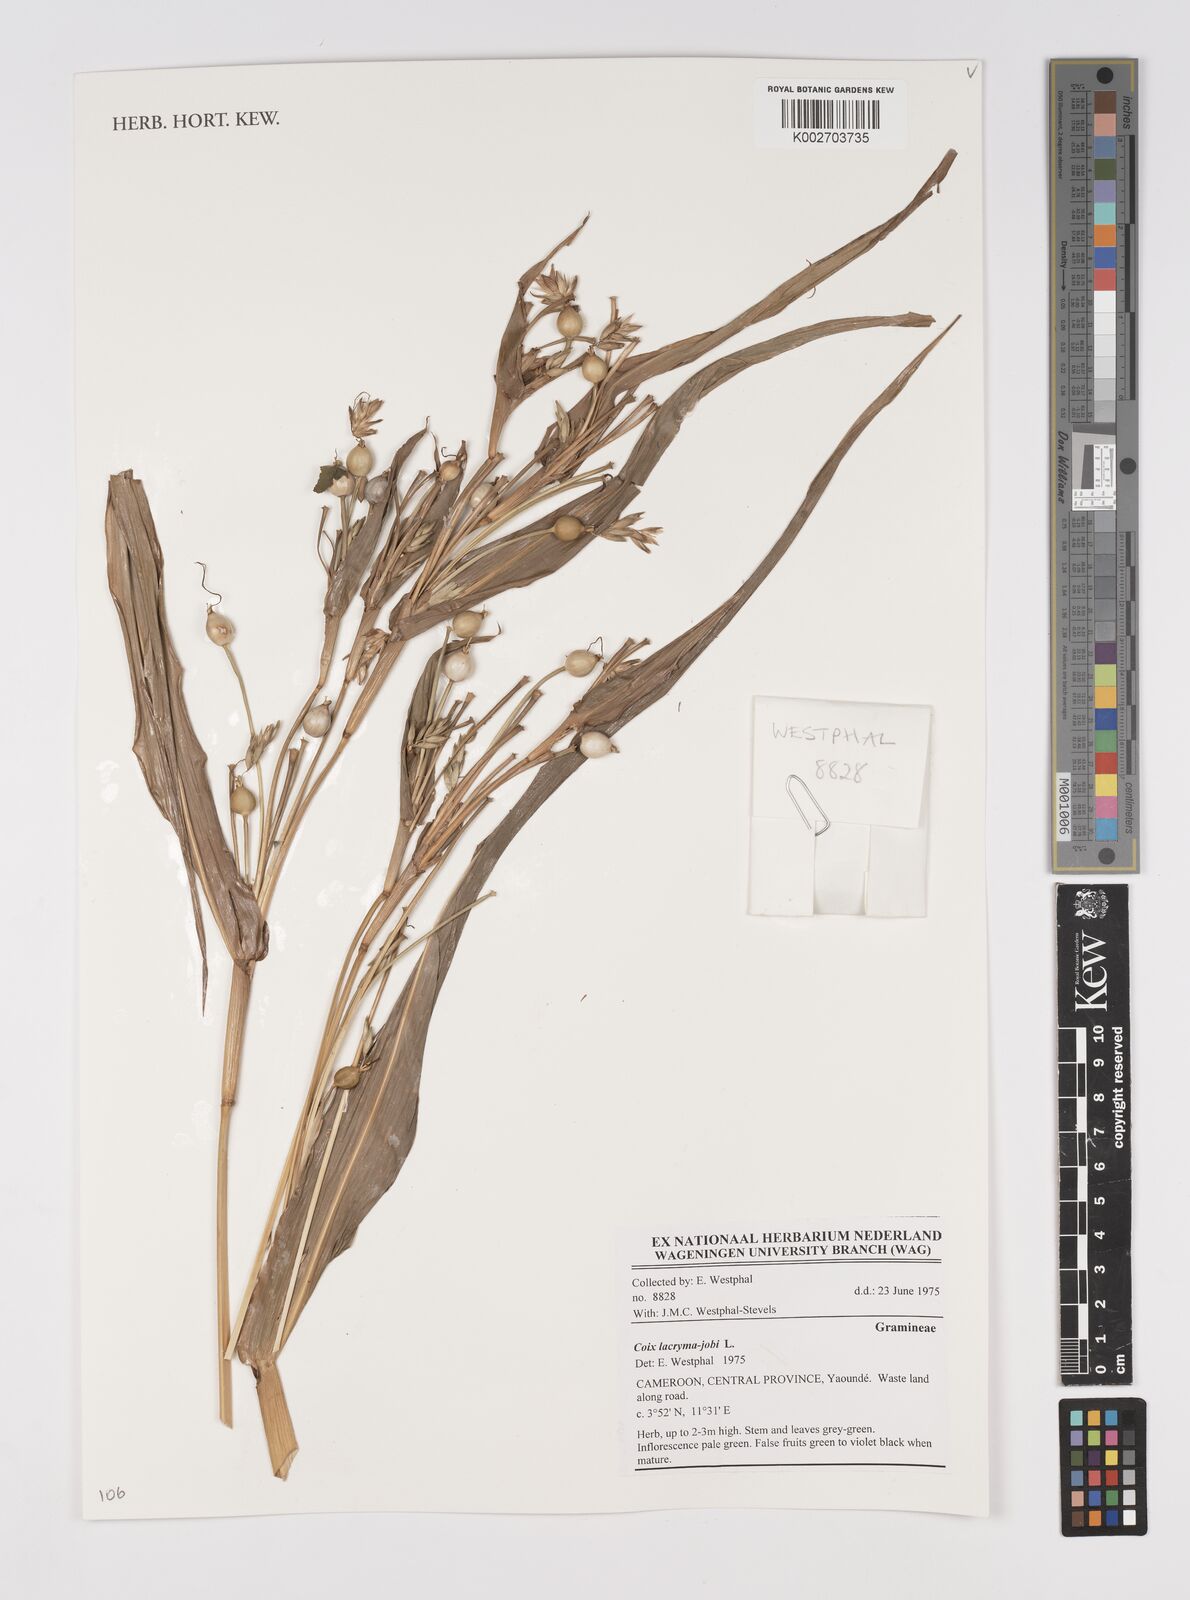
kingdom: Plantae
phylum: Tracheophyta
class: Liliopsida
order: Poales
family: Poaceae
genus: Coix
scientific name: Coix lacryma-jobi
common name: Job's tears
